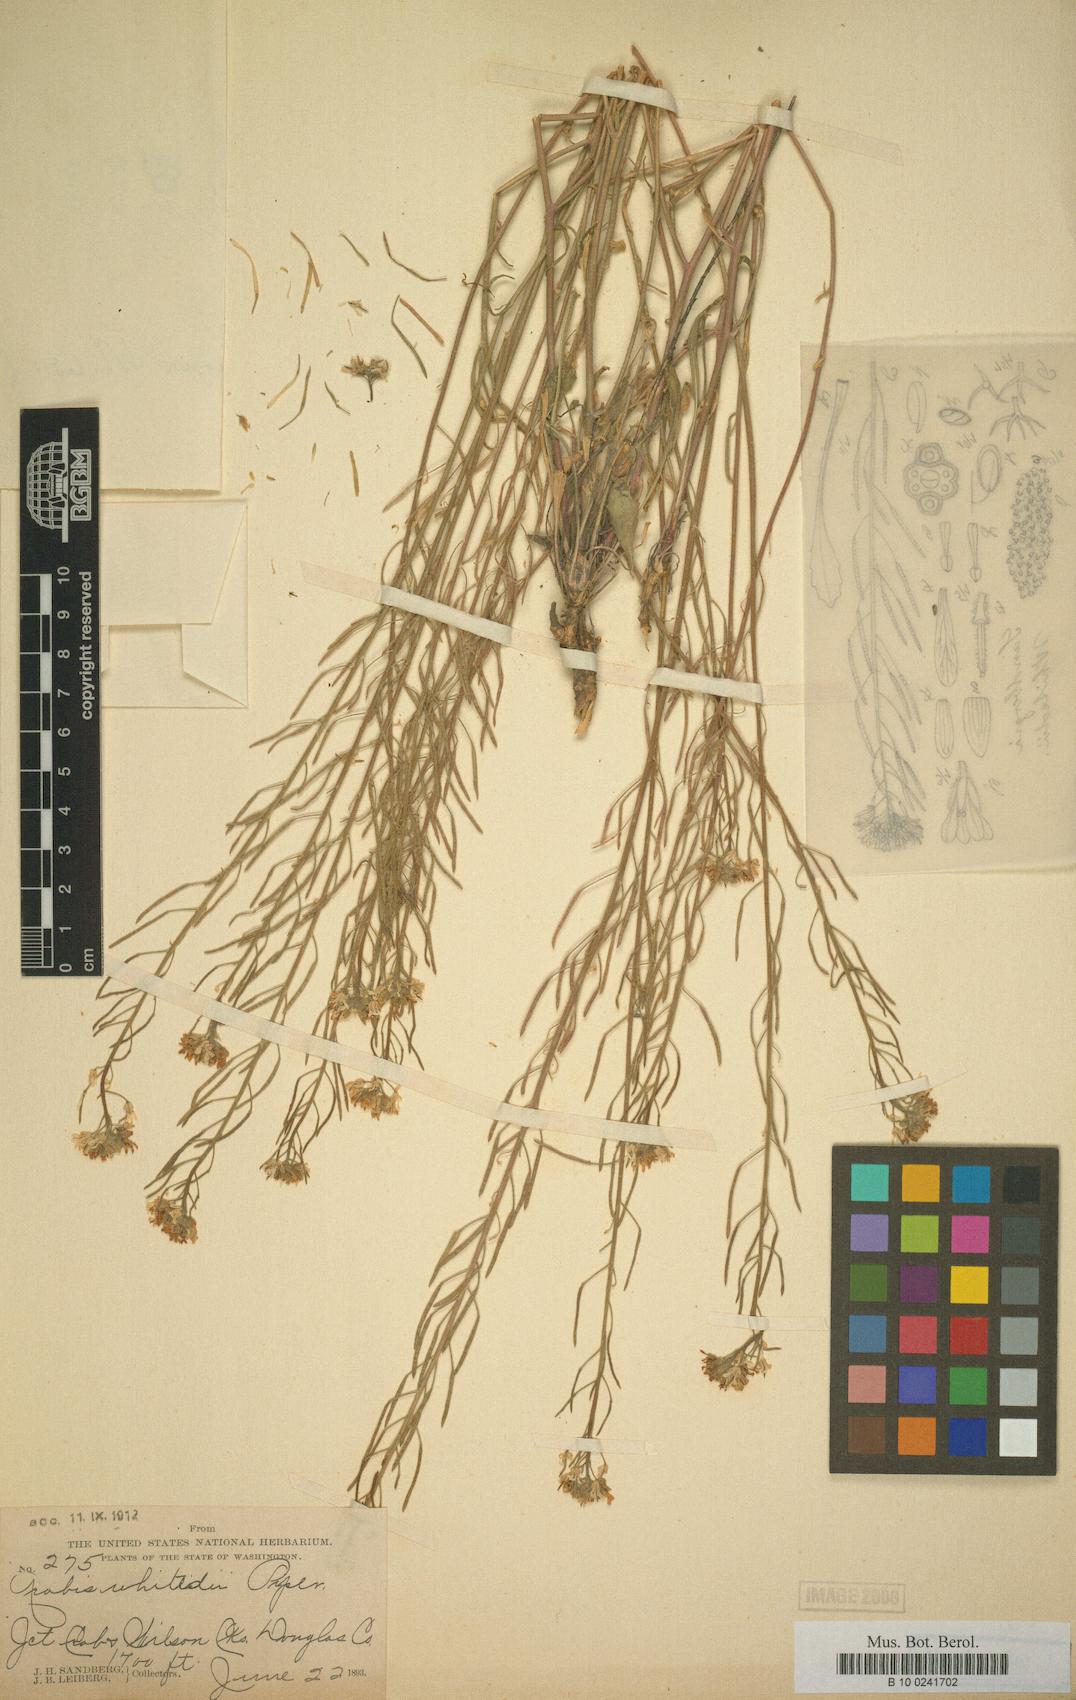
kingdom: Plantae
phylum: Tracheophyta
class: Magnoliopsida
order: Brassicales
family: Brassicaceae
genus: Sandbergia
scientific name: Sandbergia whitedii
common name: Whited's fissurewort
